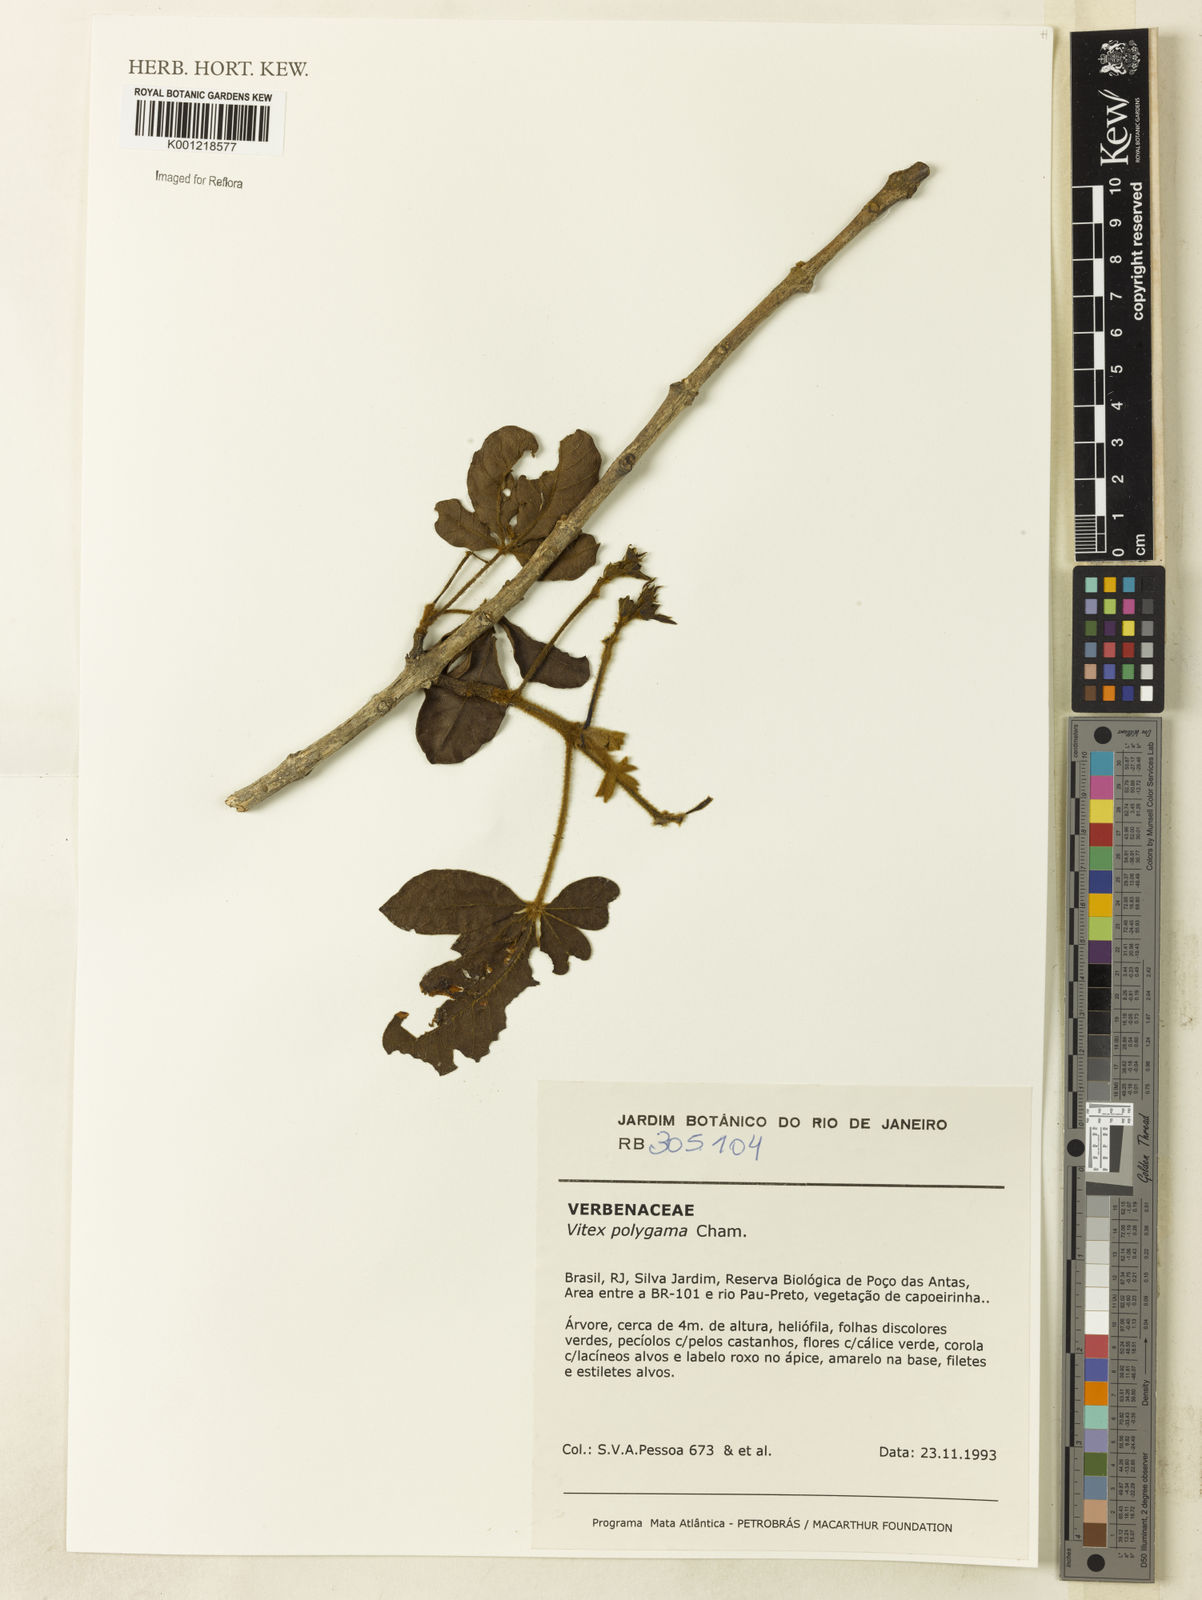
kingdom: Plantae
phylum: Tracheophyta
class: Magnoliopsida
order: Lamiales
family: Lamiaceae
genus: Vitex
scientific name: Vitex polygama
